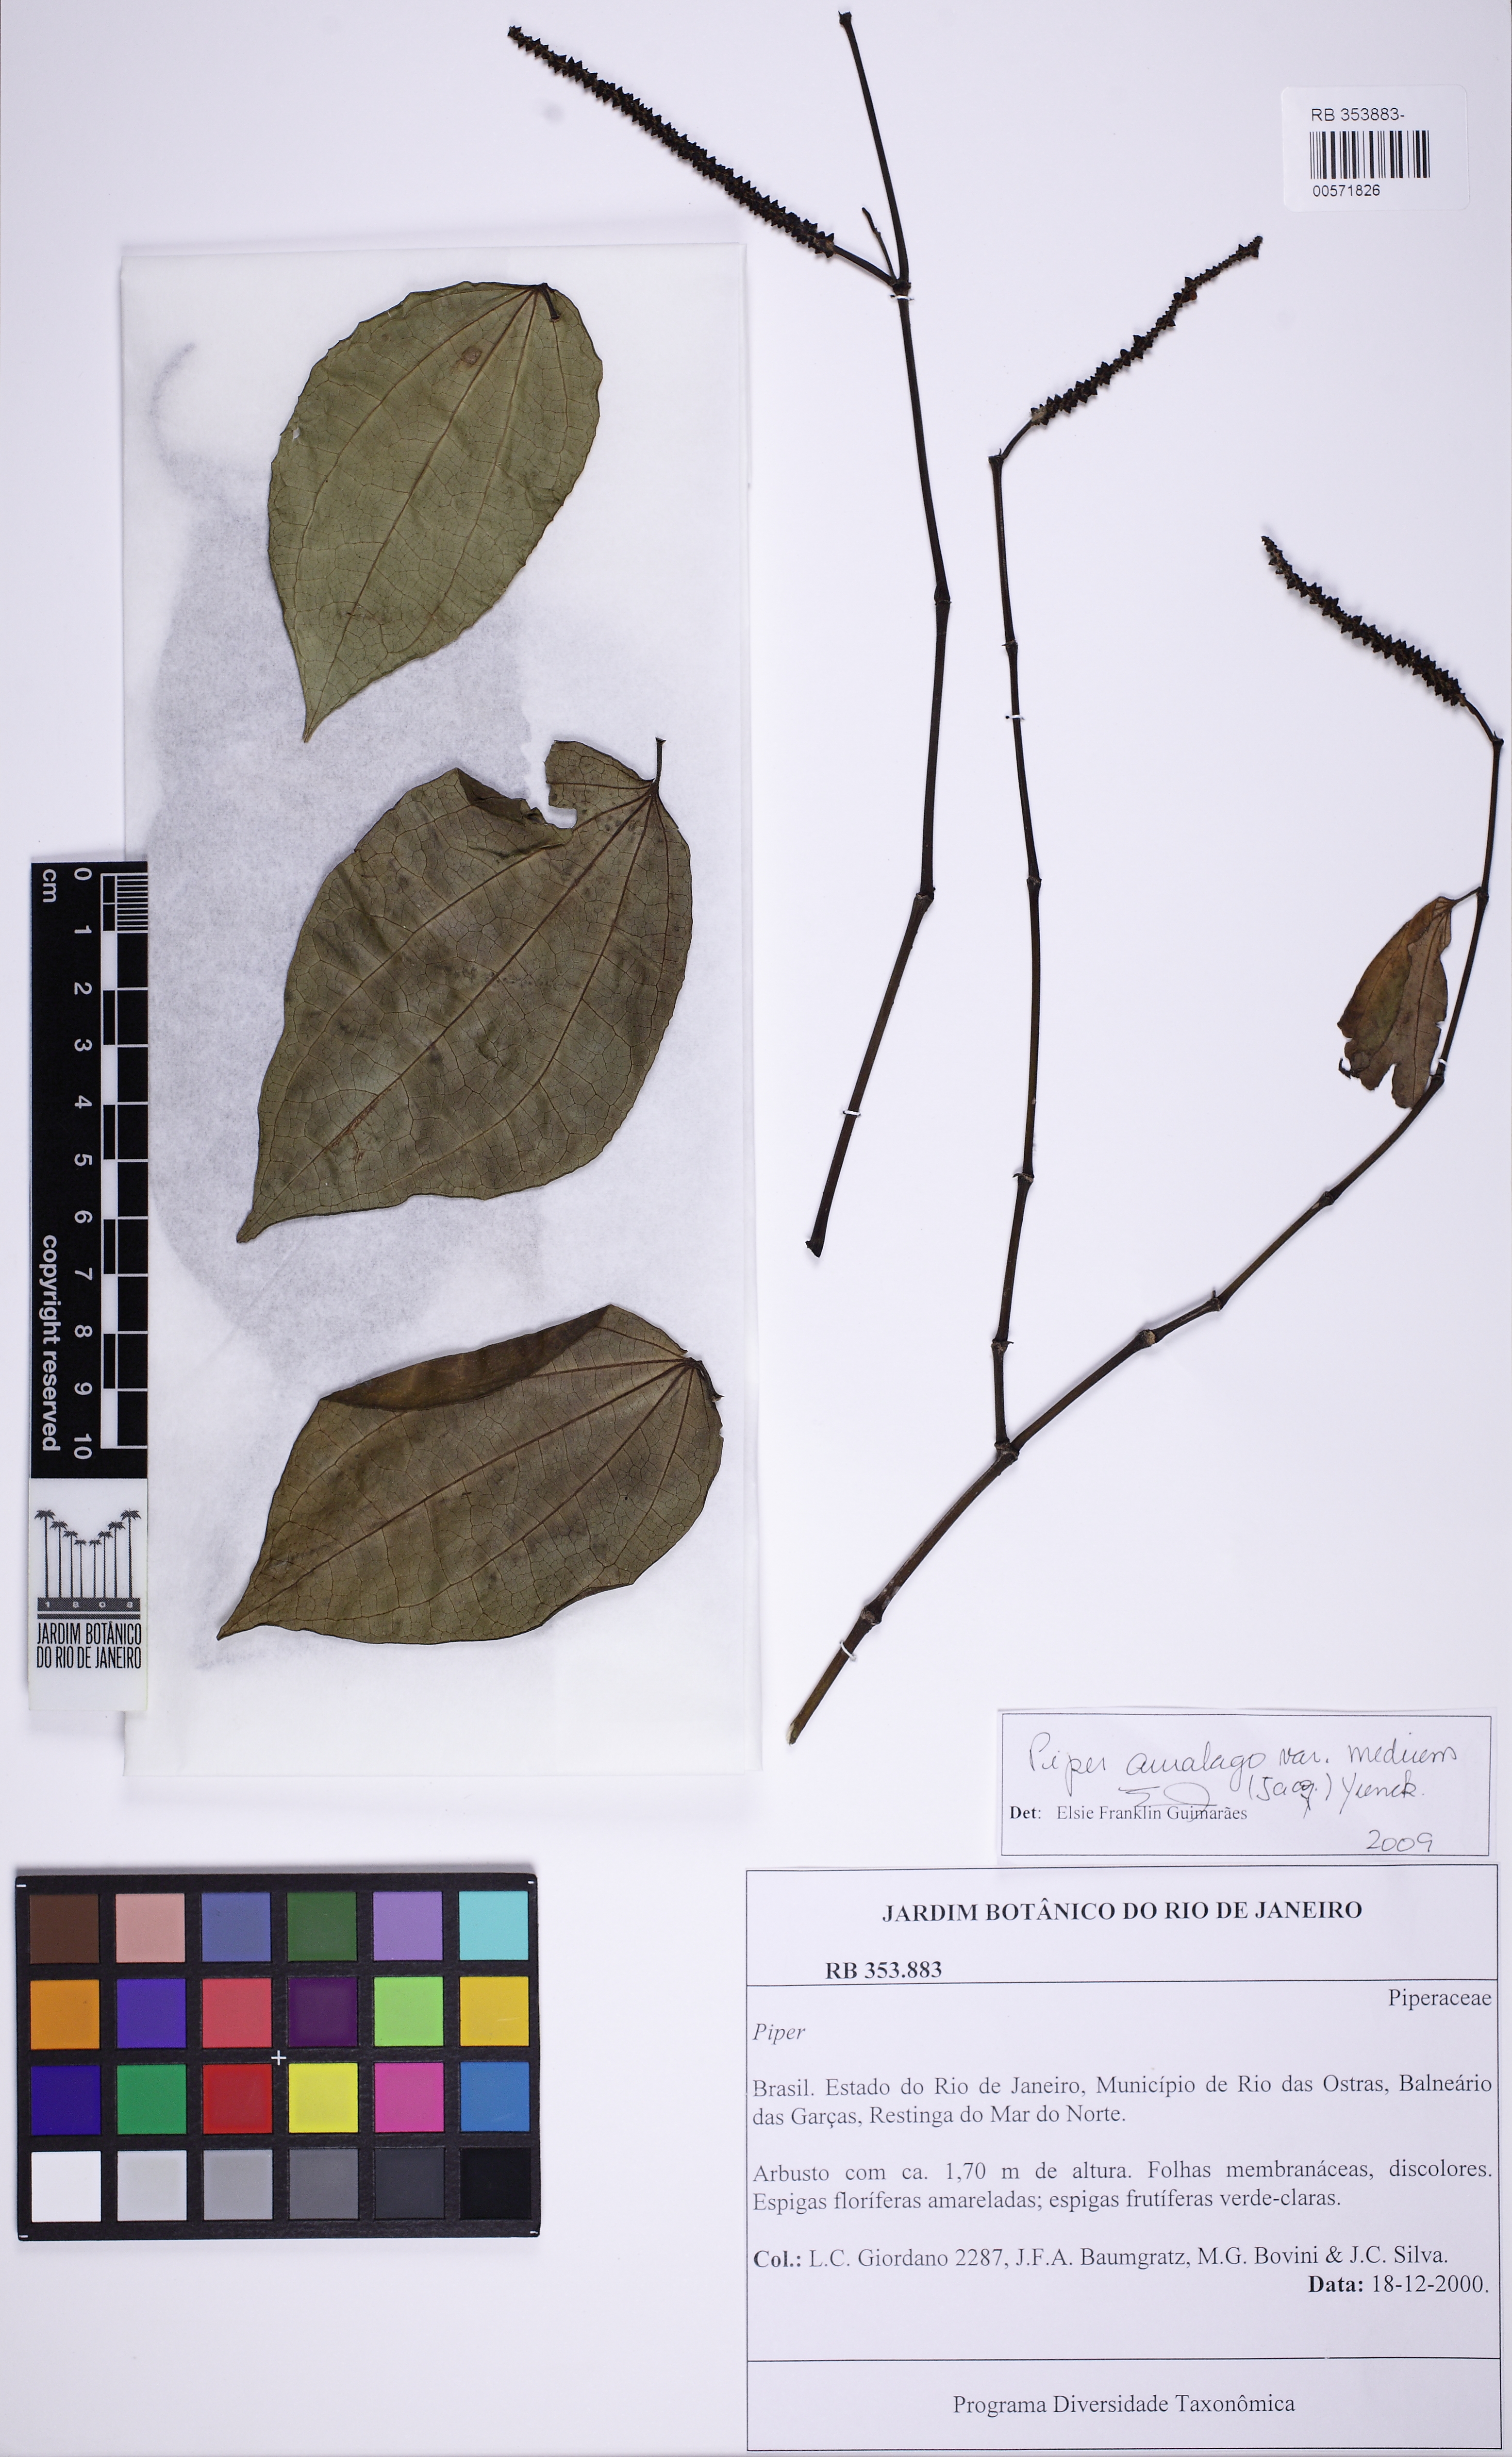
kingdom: Plantae
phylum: Tracheophyta
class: Magnoliopsida
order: Piperales
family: Piperaceae
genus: Piper
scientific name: Piper amalago
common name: Pepper-elder
